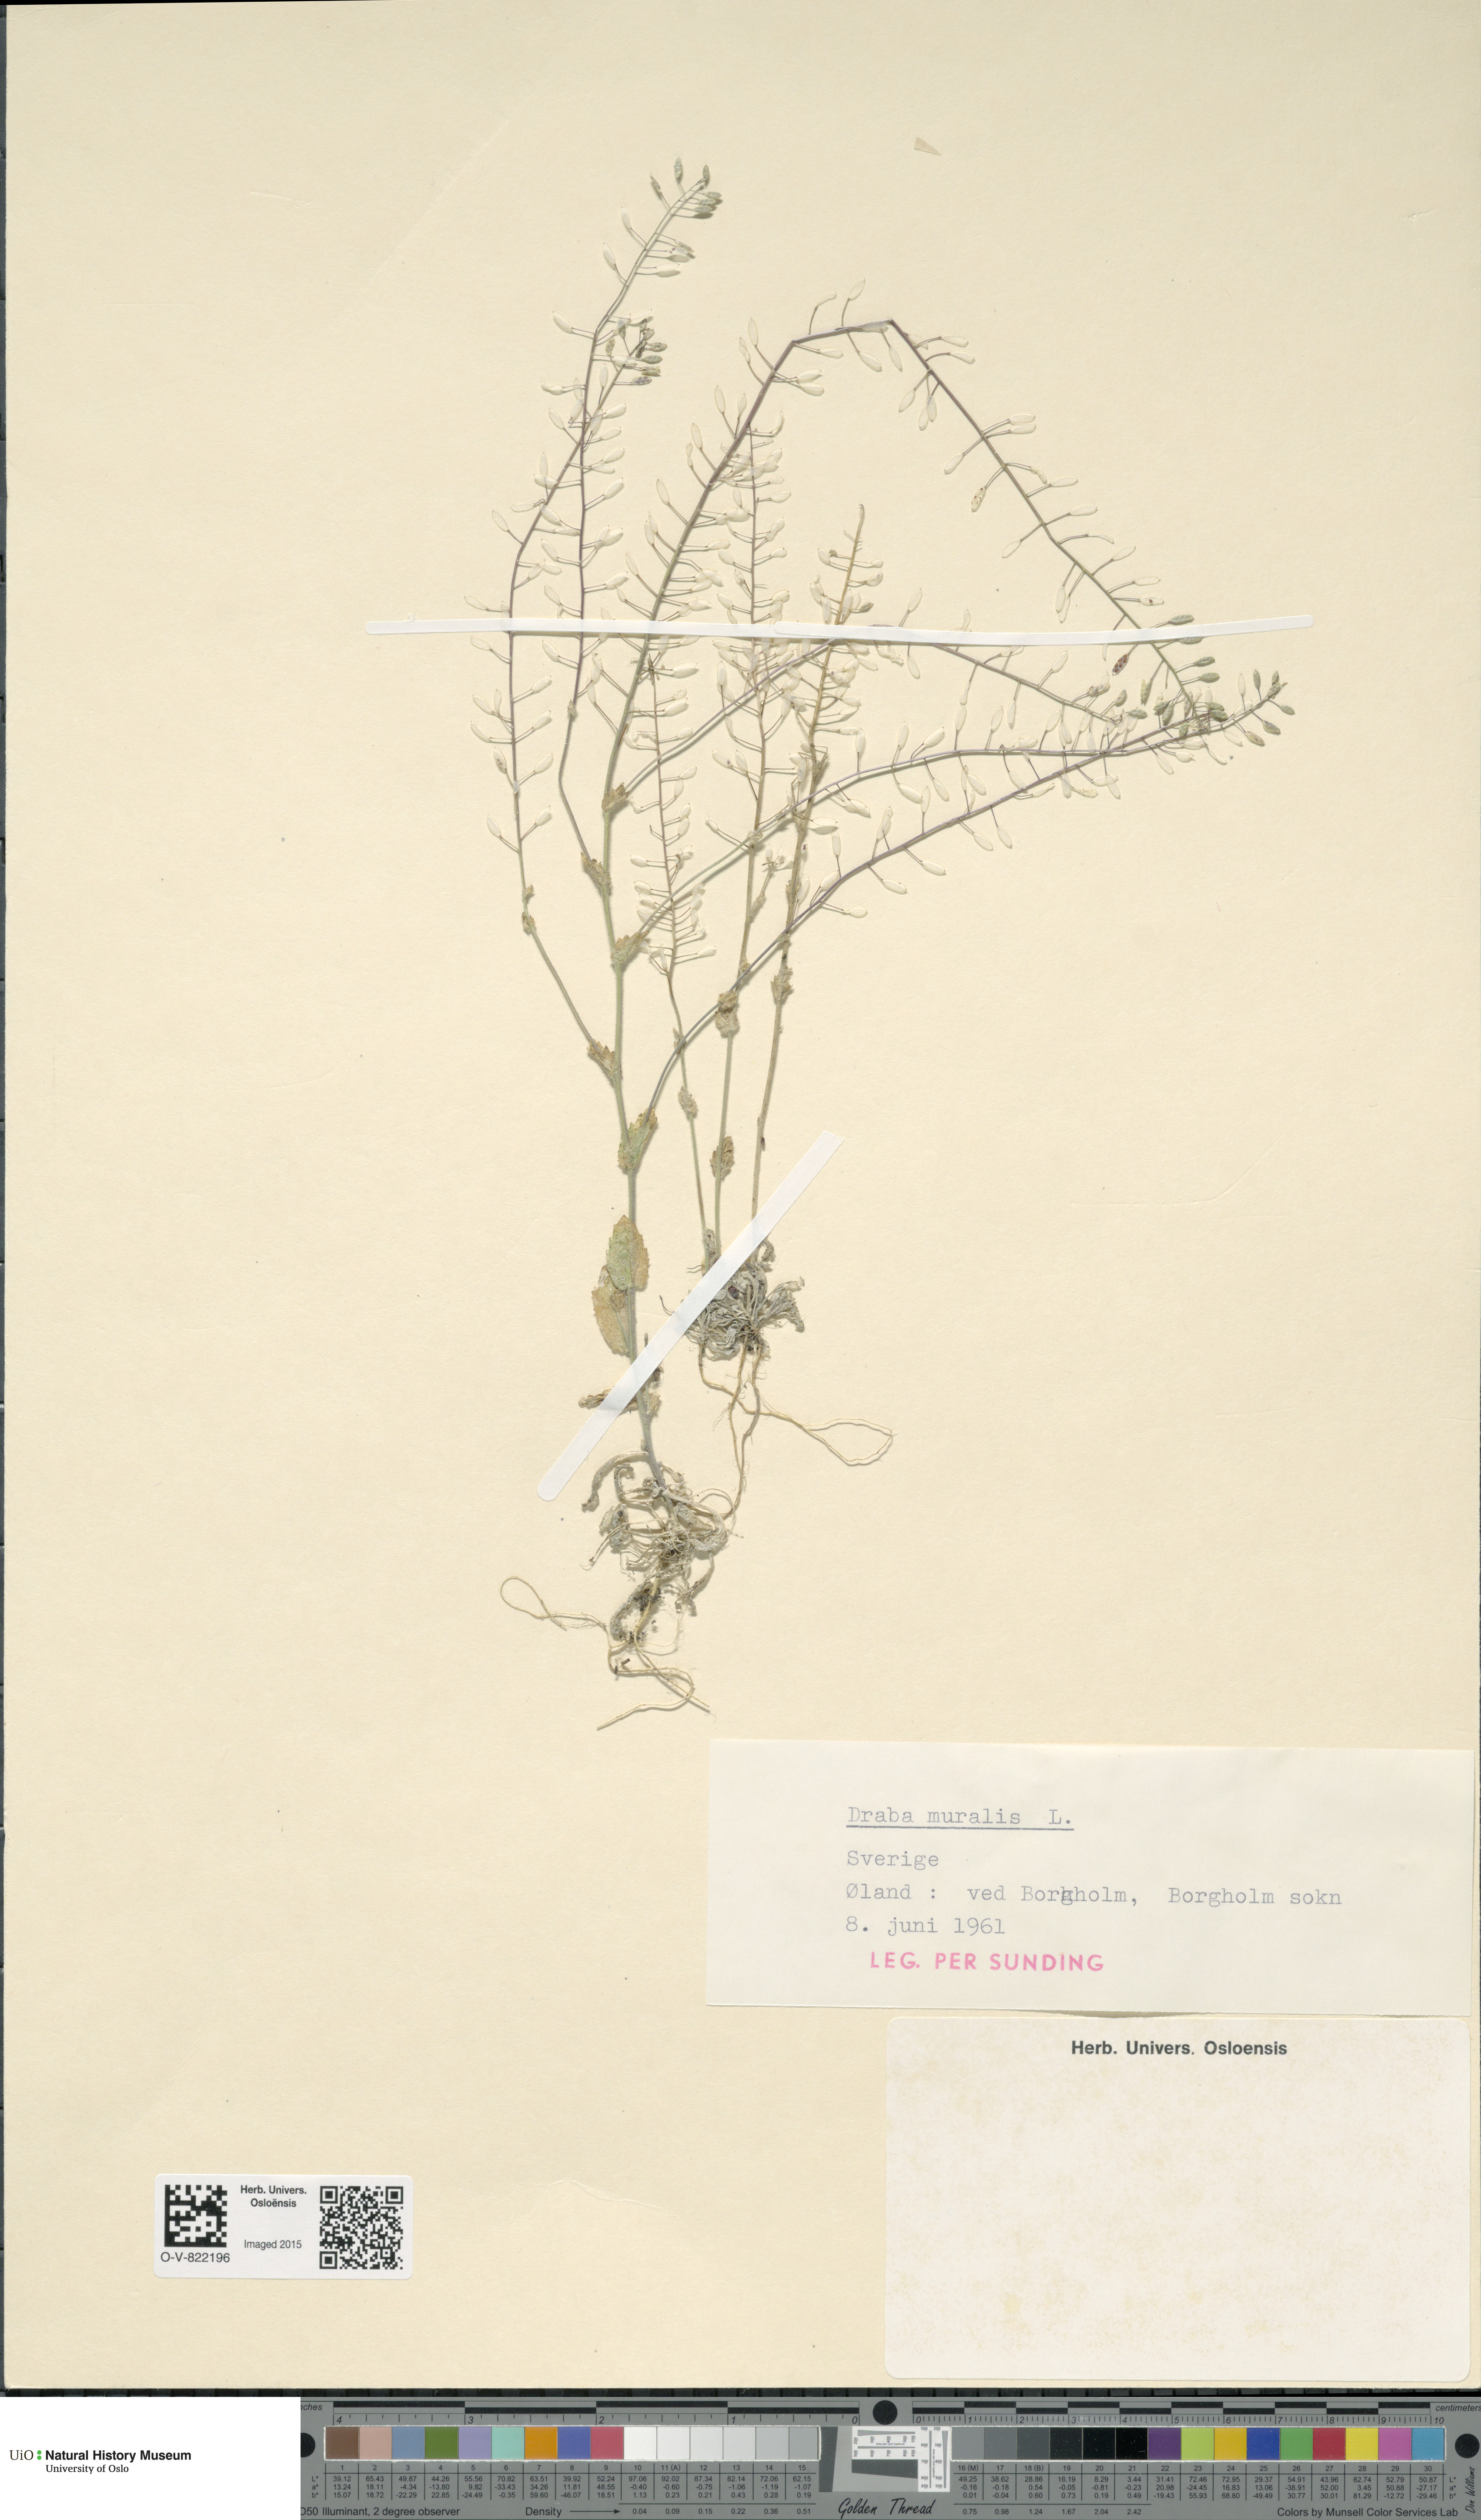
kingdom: Plantae
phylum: Tracheophyta
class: Magnoliopsida
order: Brassicales
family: Brassicaceae
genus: Drabella
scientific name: Drabella muralis
